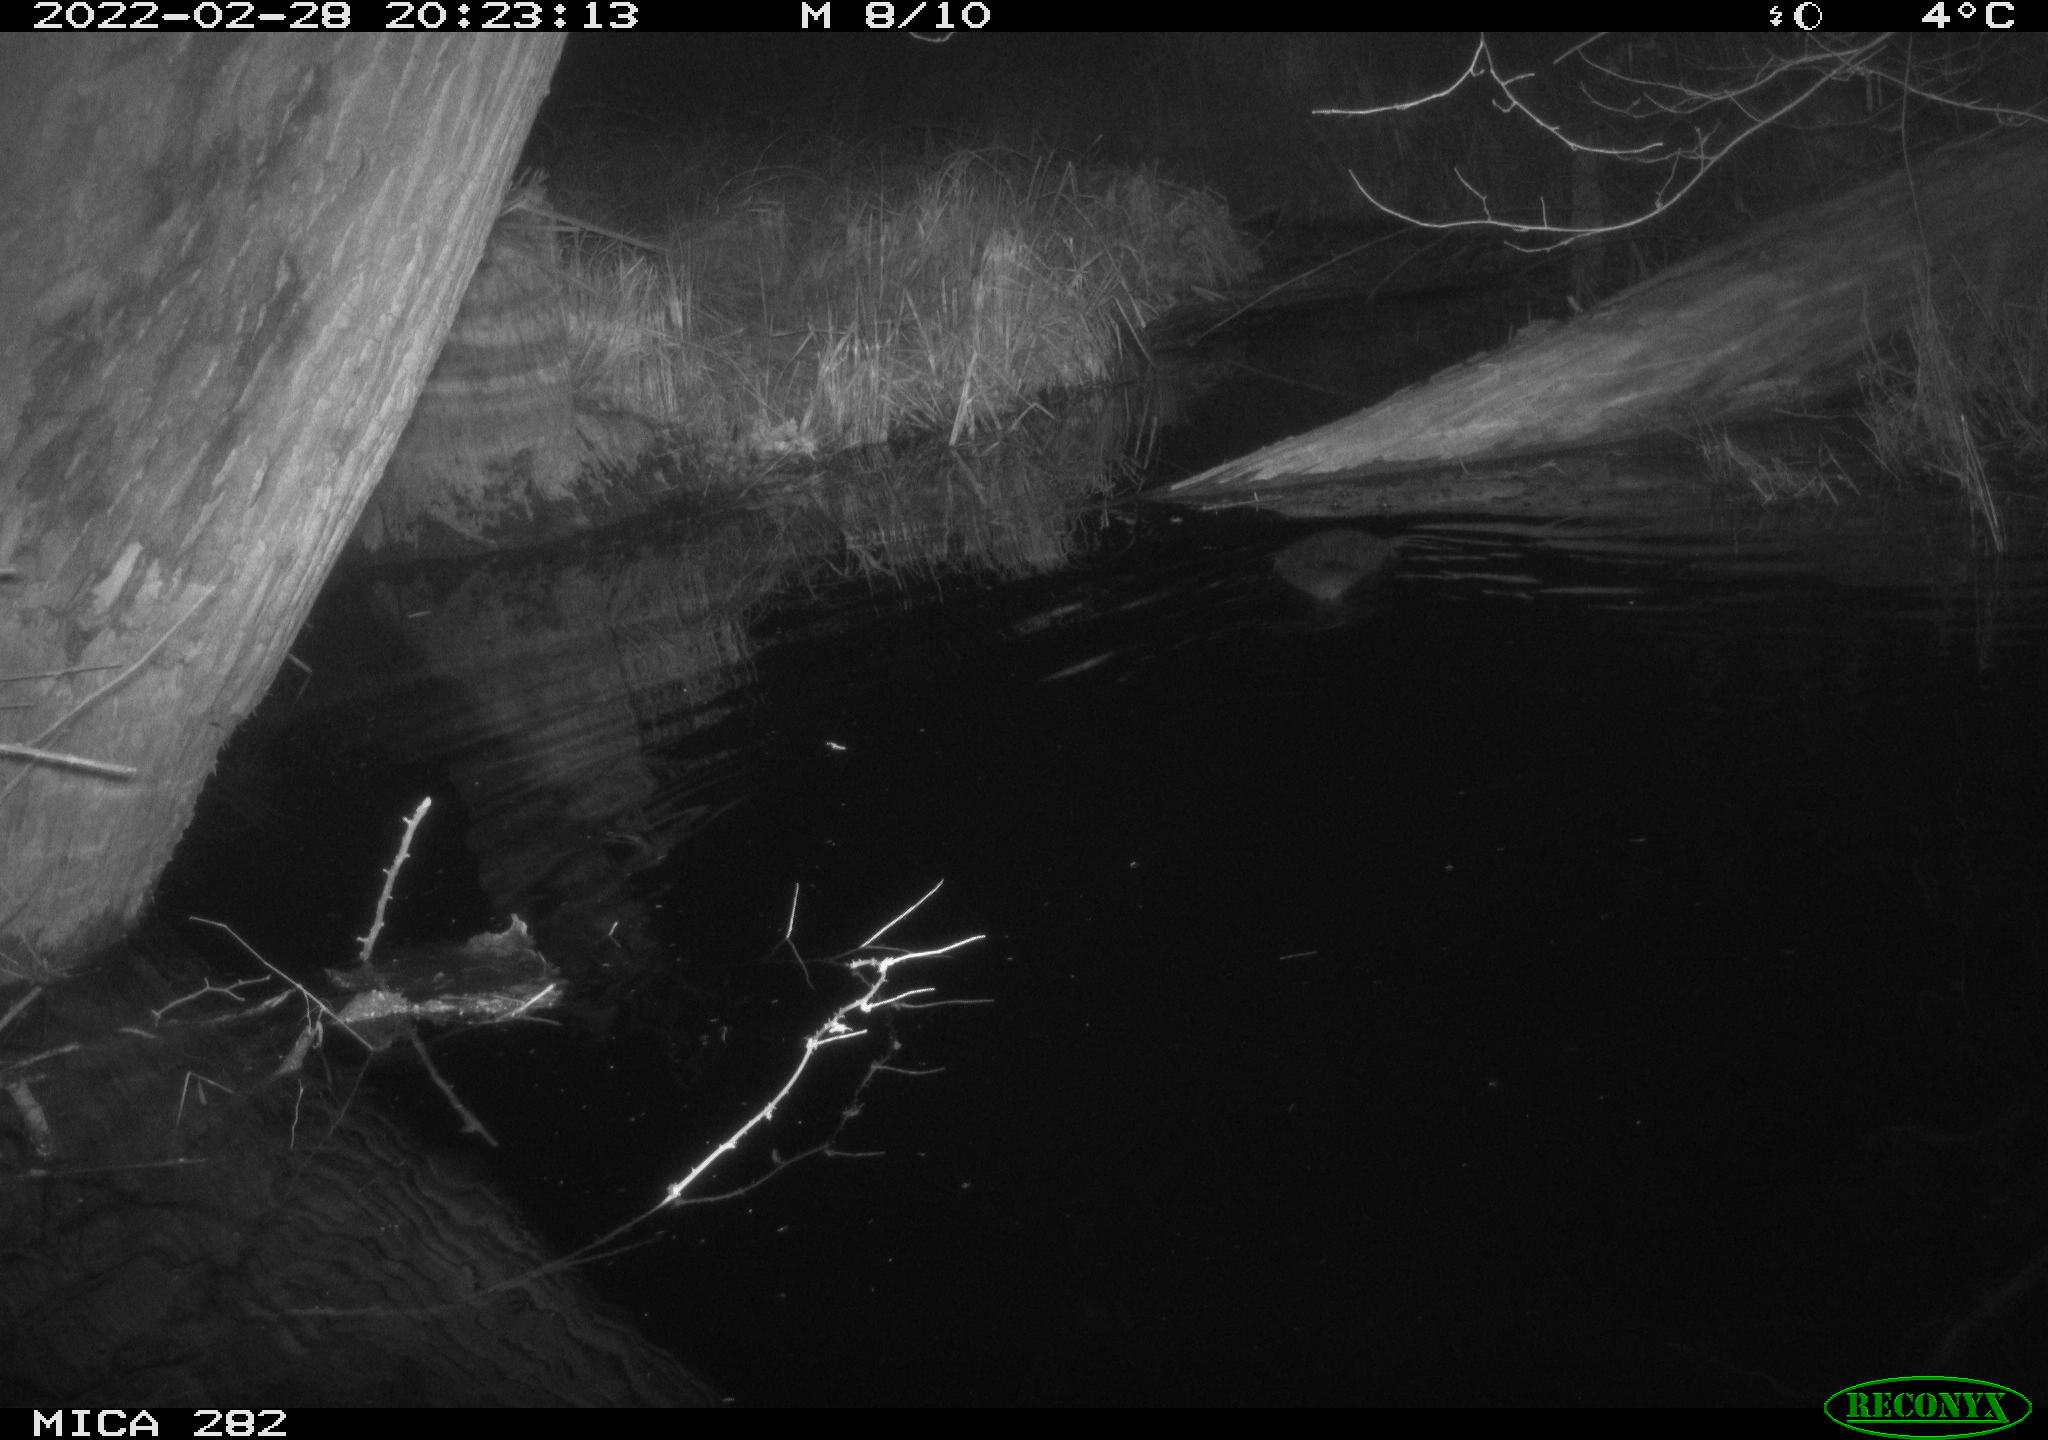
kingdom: Animalia
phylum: Chordata
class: Mammalia
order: Rodentia
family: Castoridae
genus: Castor
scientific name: Castor fiber
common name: Eurasian beaver
